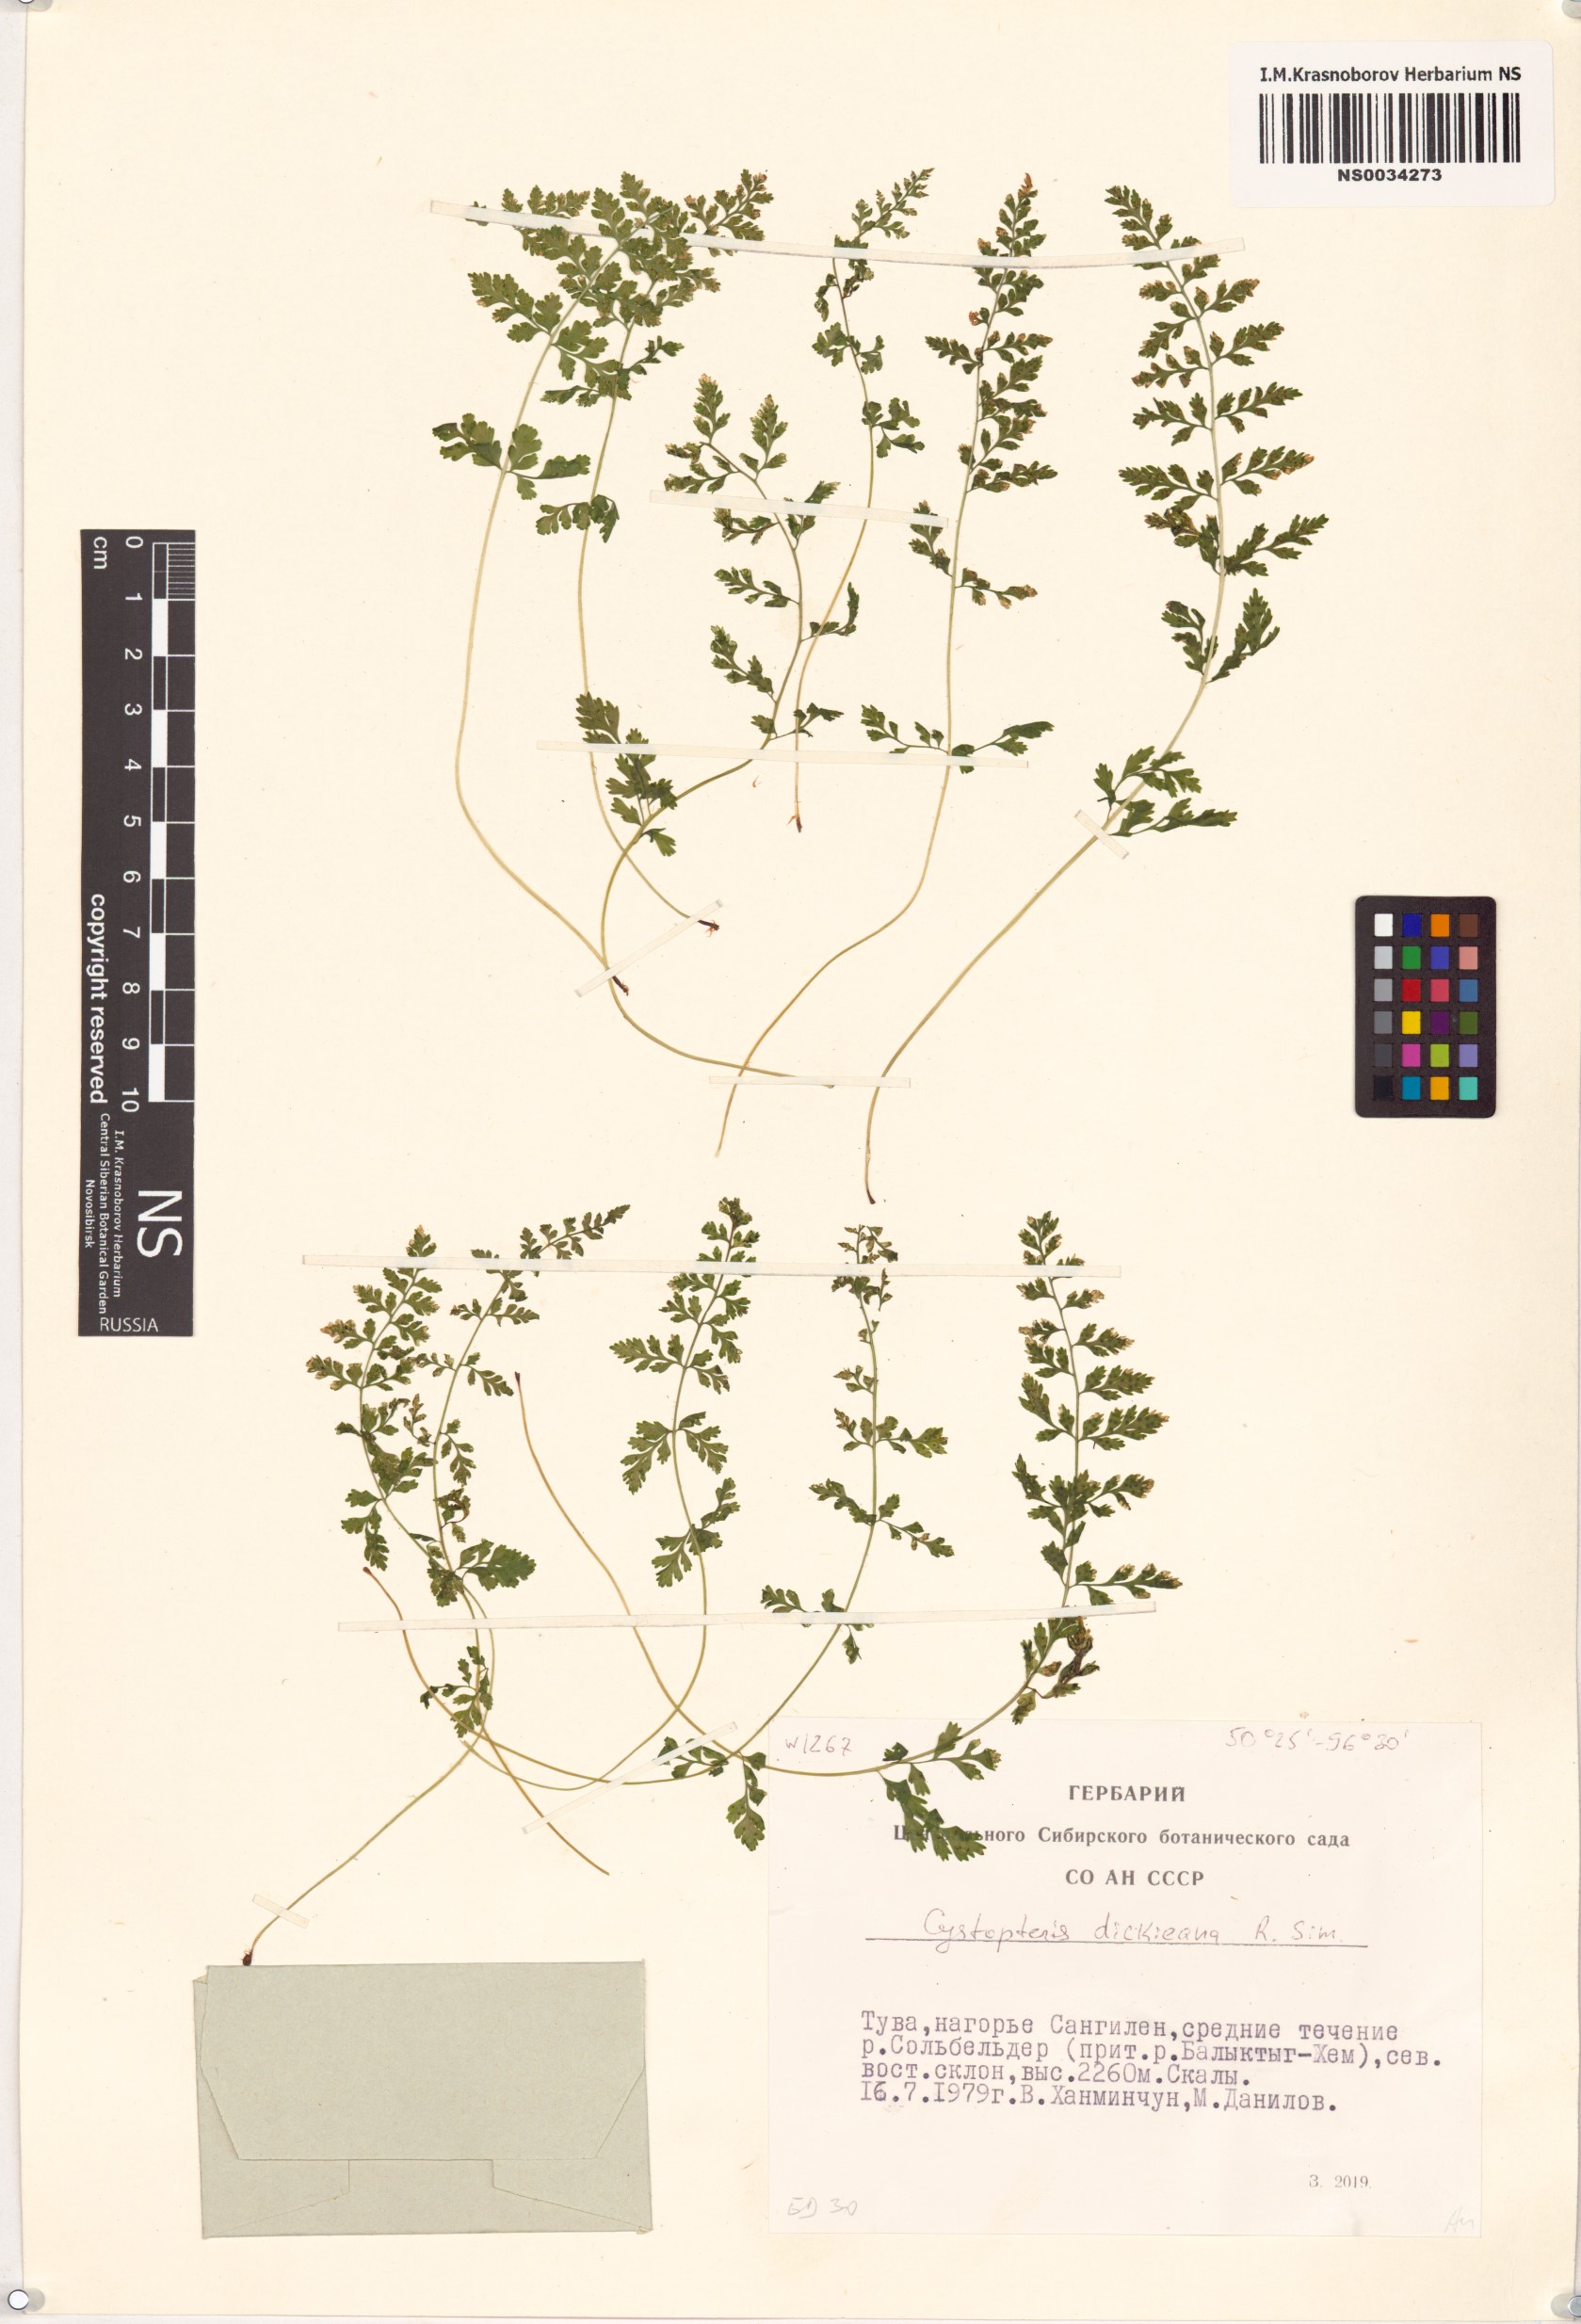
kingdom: Plantae
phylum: Tracheophyta
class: Polypodiopsida
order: Polypodiales
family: Cystopteridaceae
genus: Cystopteris
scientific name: Cystopteris dickieana
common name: Dickie's bladder-fern
